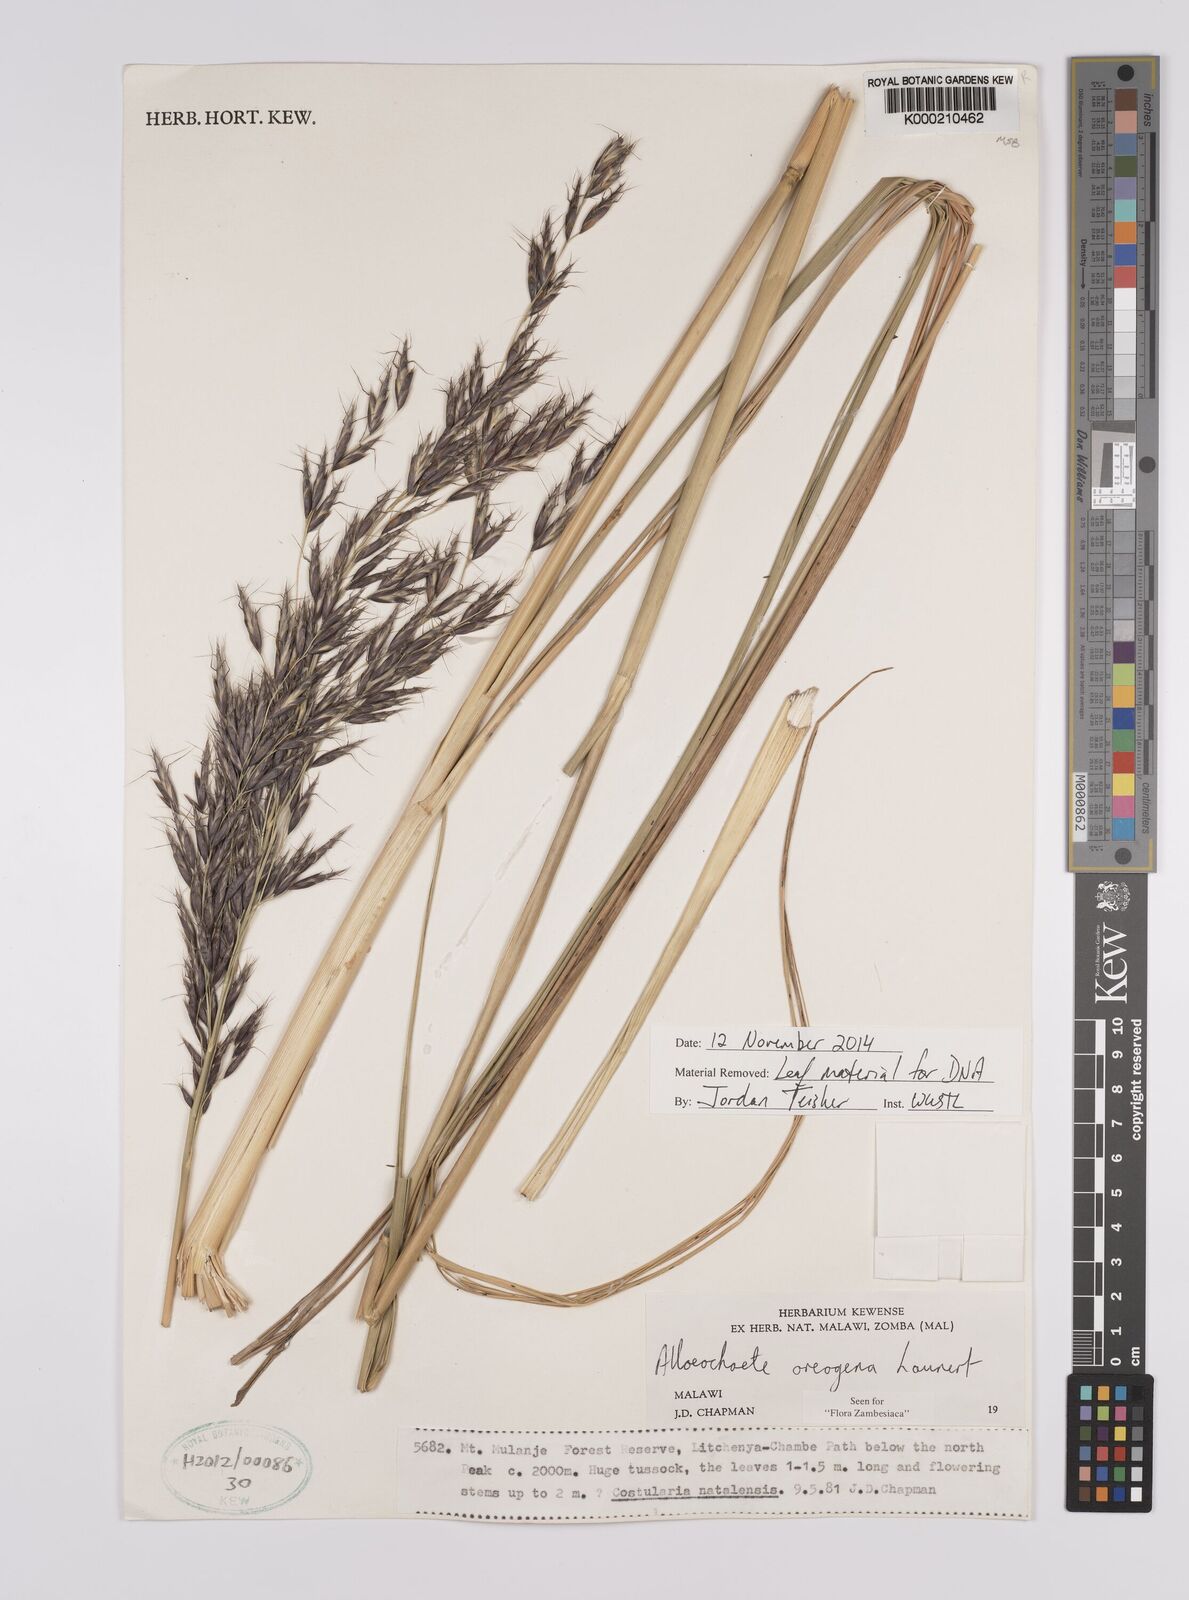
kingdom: Plantae
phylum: Tracheophyta
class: Liliopsida
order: Poales
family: Poaceae
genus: Alloeochaete
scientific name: Alloeochaete oreogena
